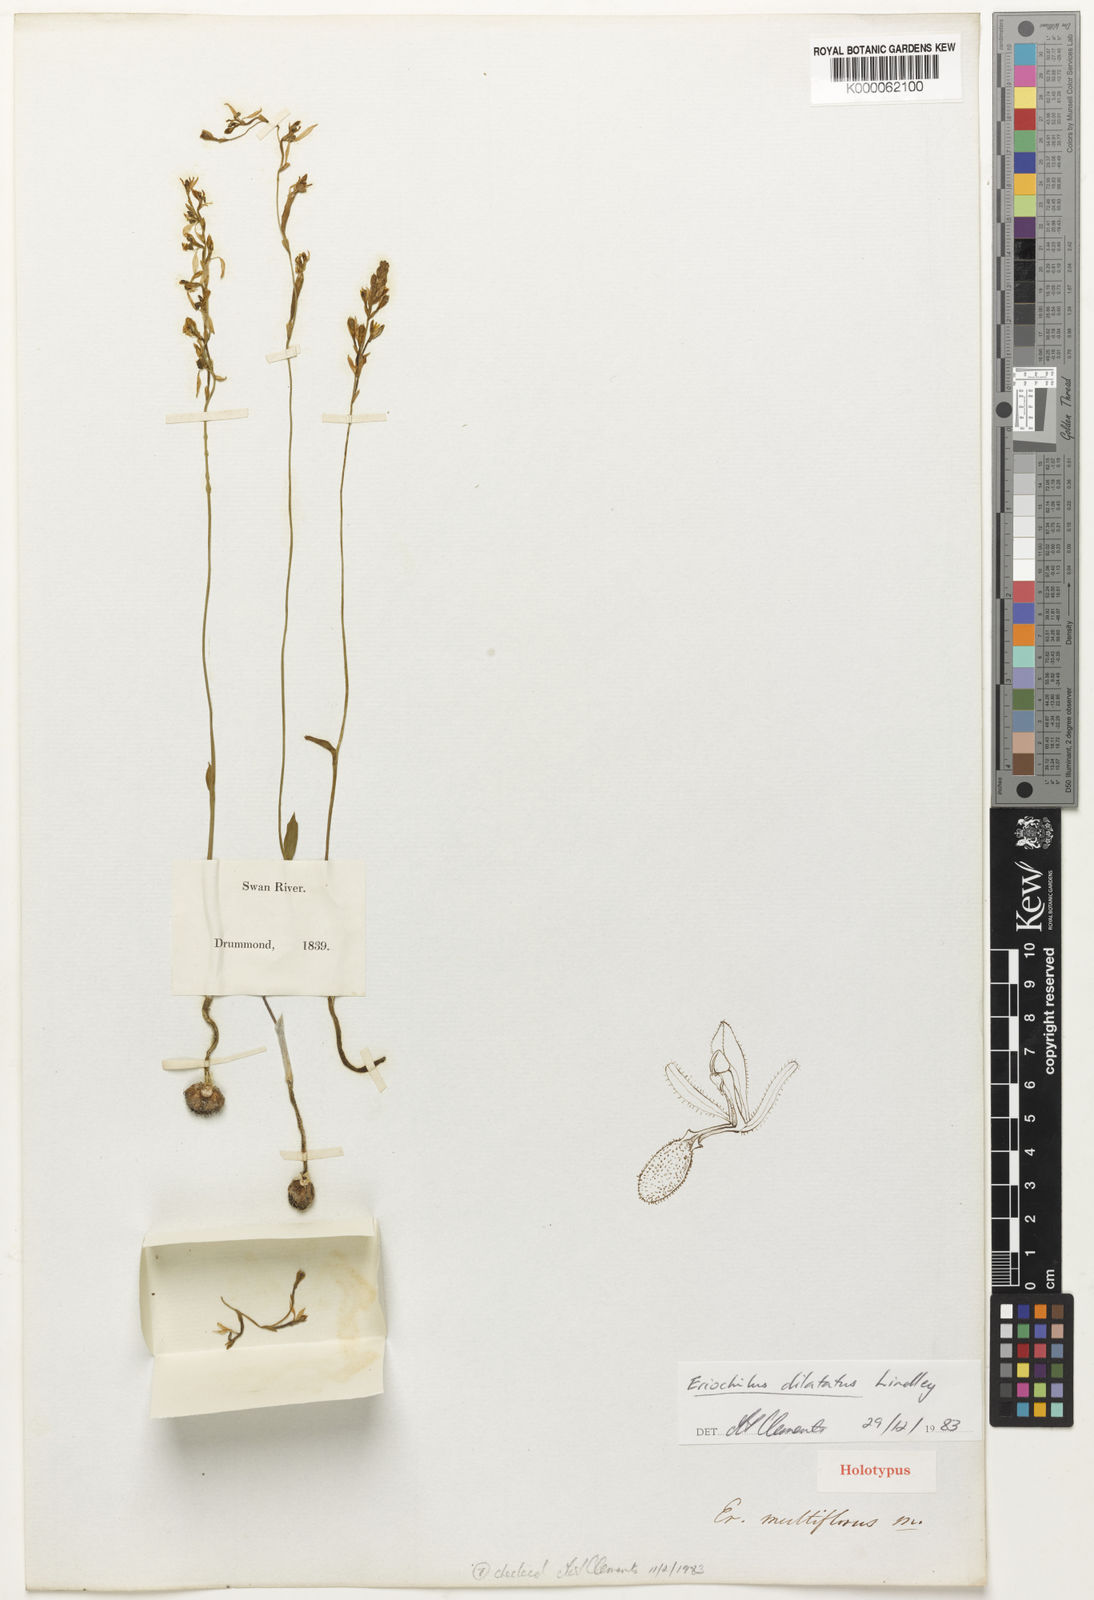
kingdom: Plantae
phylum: Tracheophyta
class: Liliopsida
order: Asparagales
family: Orchidaceae
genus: Eriochilus
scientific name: Eriochilus dilatatus
